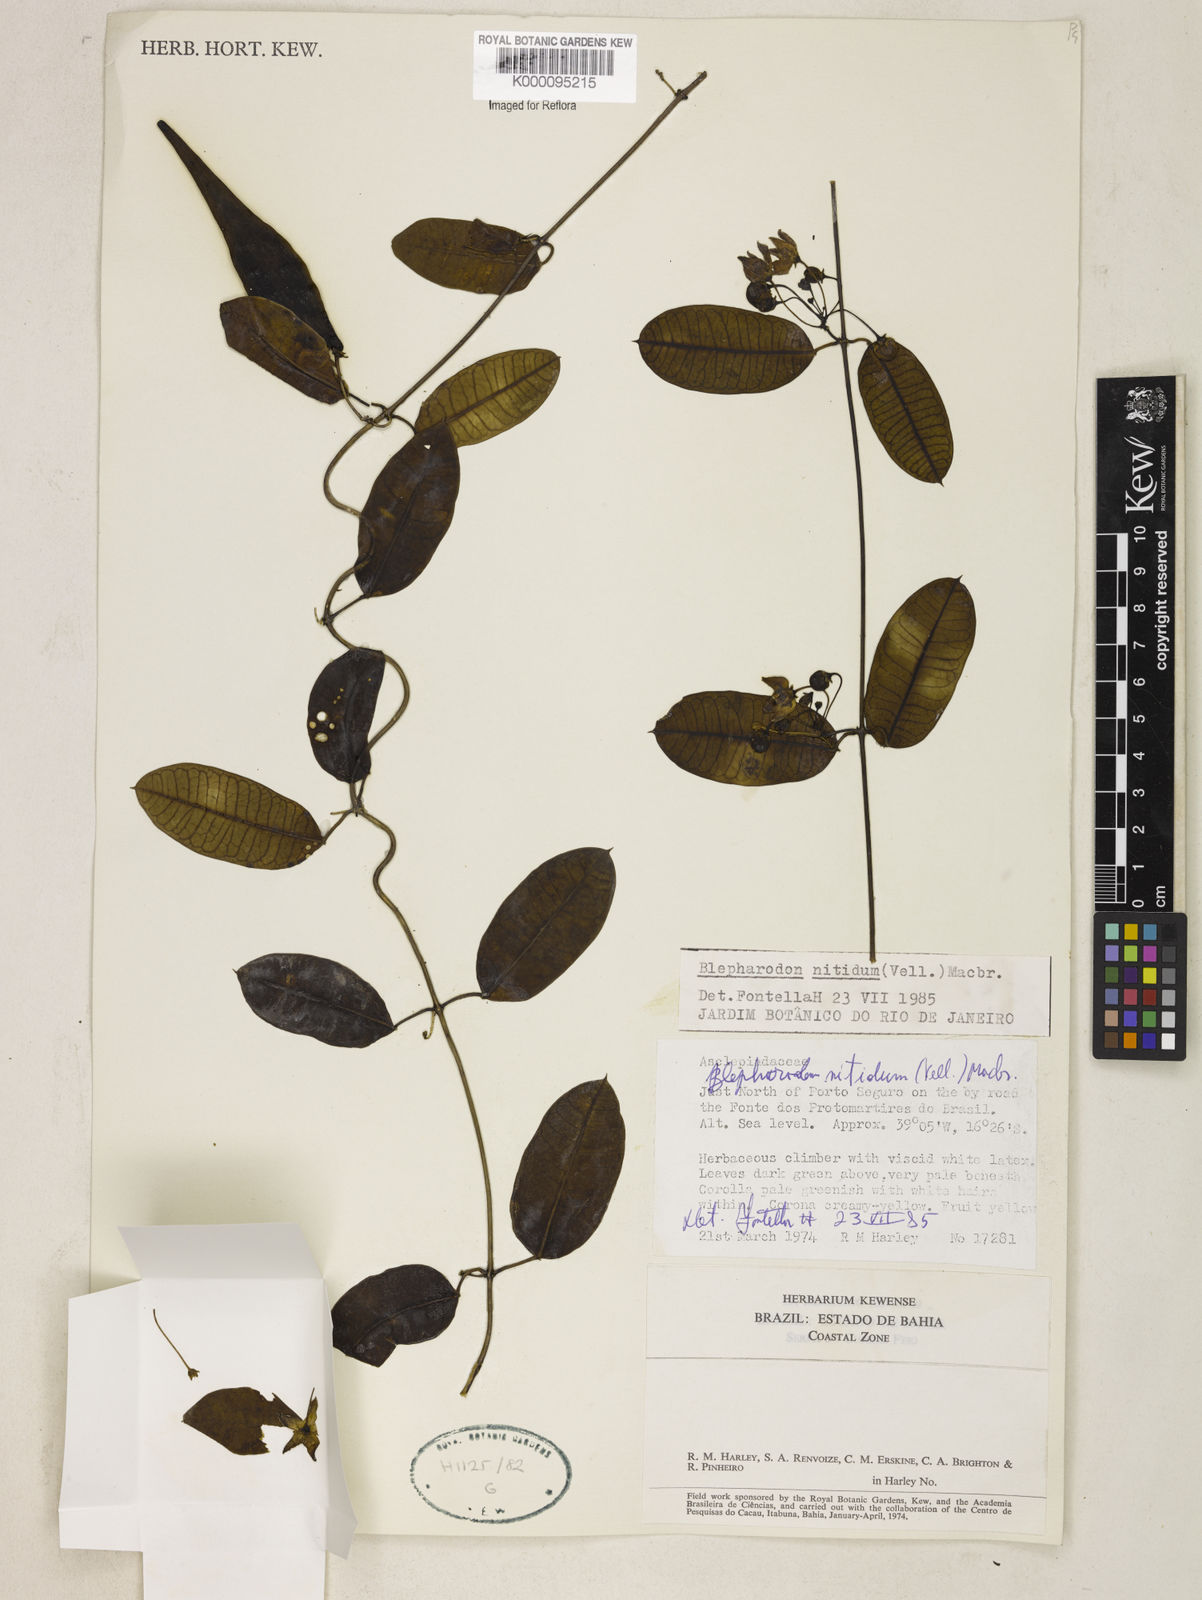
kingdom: Plantae
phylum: Tracheophyta
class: Magnoliopsida
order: Gentianales
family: Apocynaceae
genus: Blepharodon
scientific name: Blepharodon pictum
